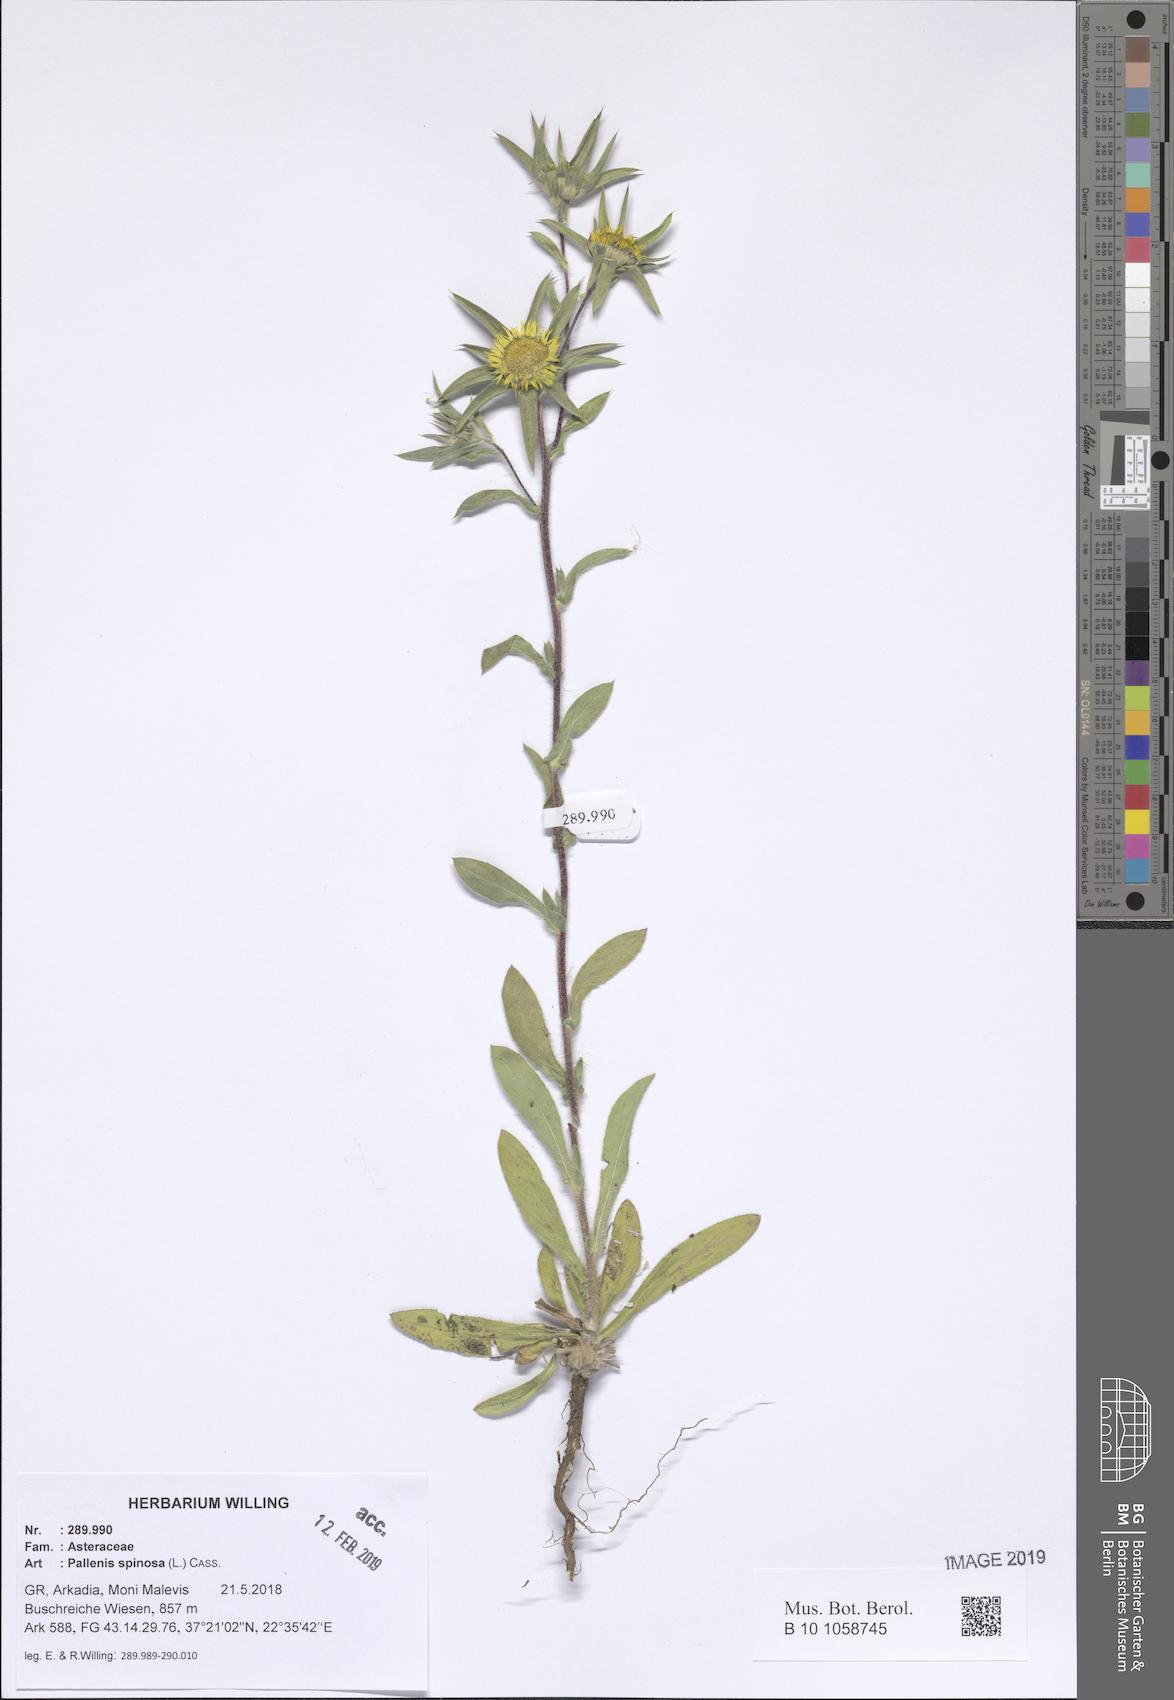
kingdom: Plantae
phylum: Tracheophyta
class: Magnoliopsida
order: Asterales
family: Asteraceae
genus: Pallenis
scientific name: Pallenis spinosa
